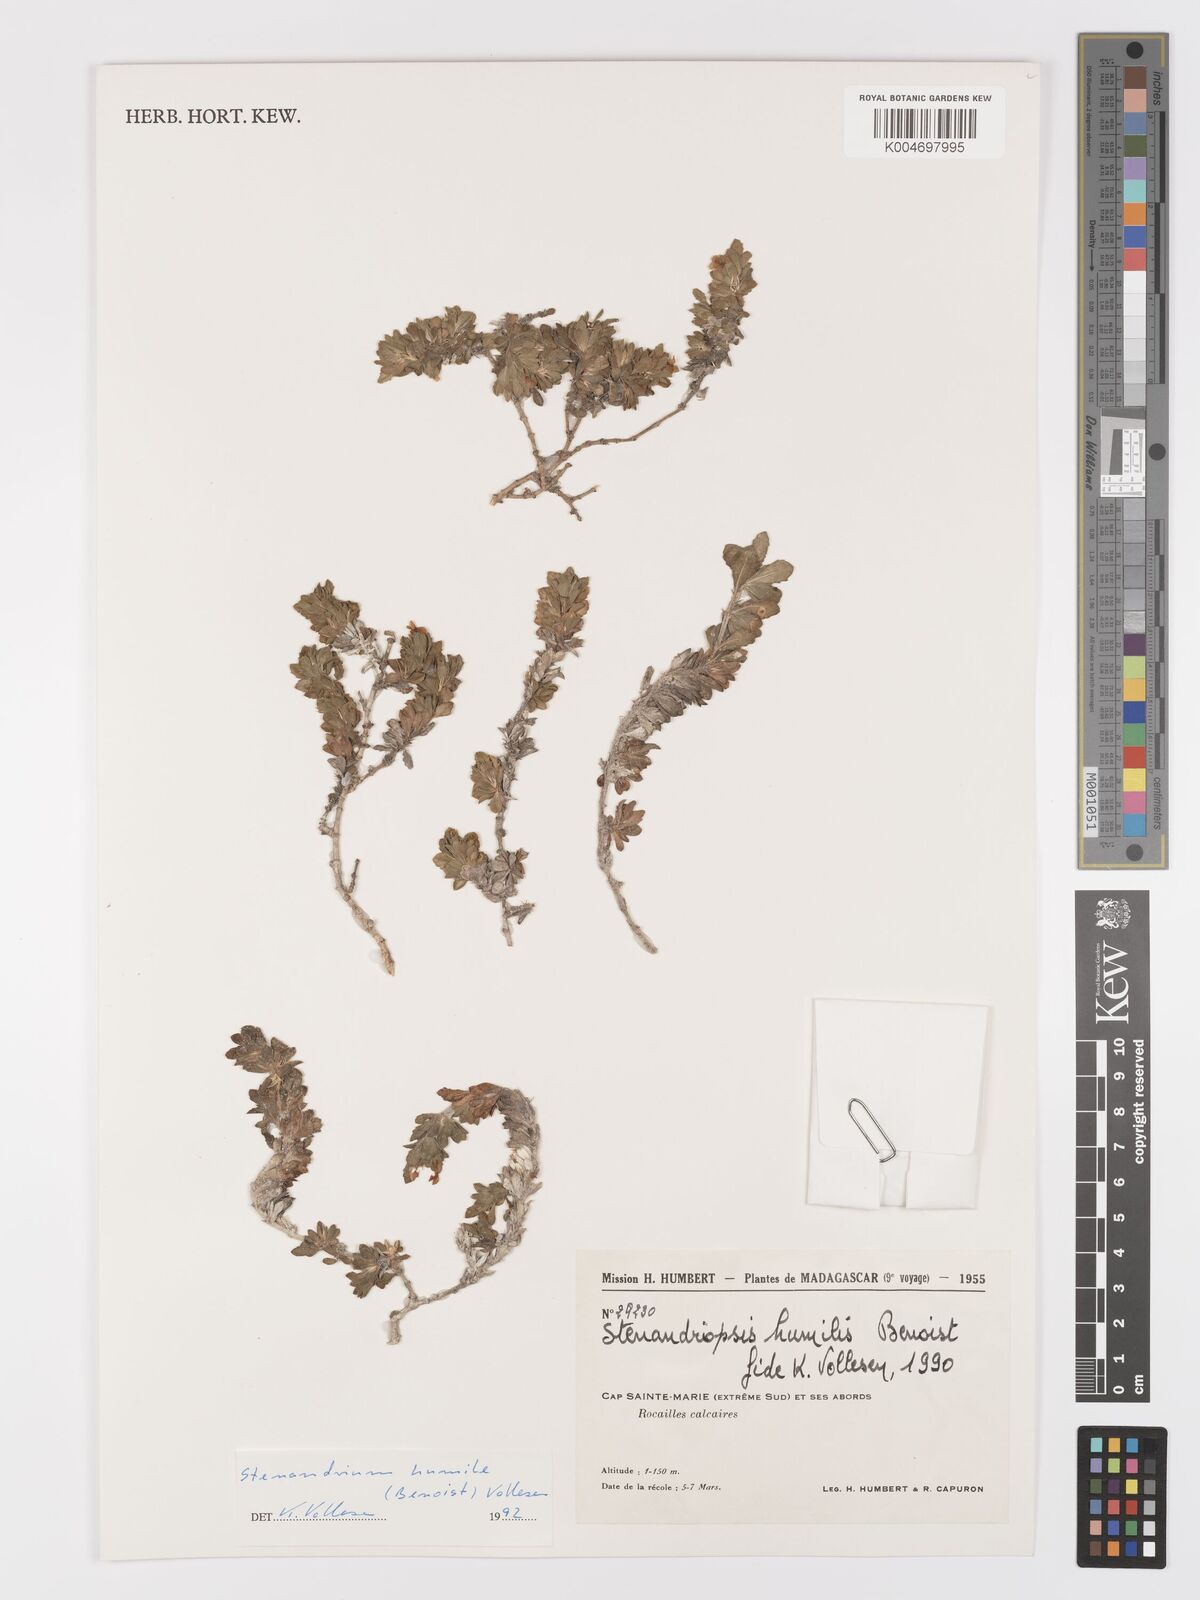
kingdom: Plantae
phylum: Tracheophyta
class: Magnoliopsida
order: Lamiales
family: Acanthaceae
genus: Stenandriopsis
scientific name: Stenandriopsis keraudrenae
